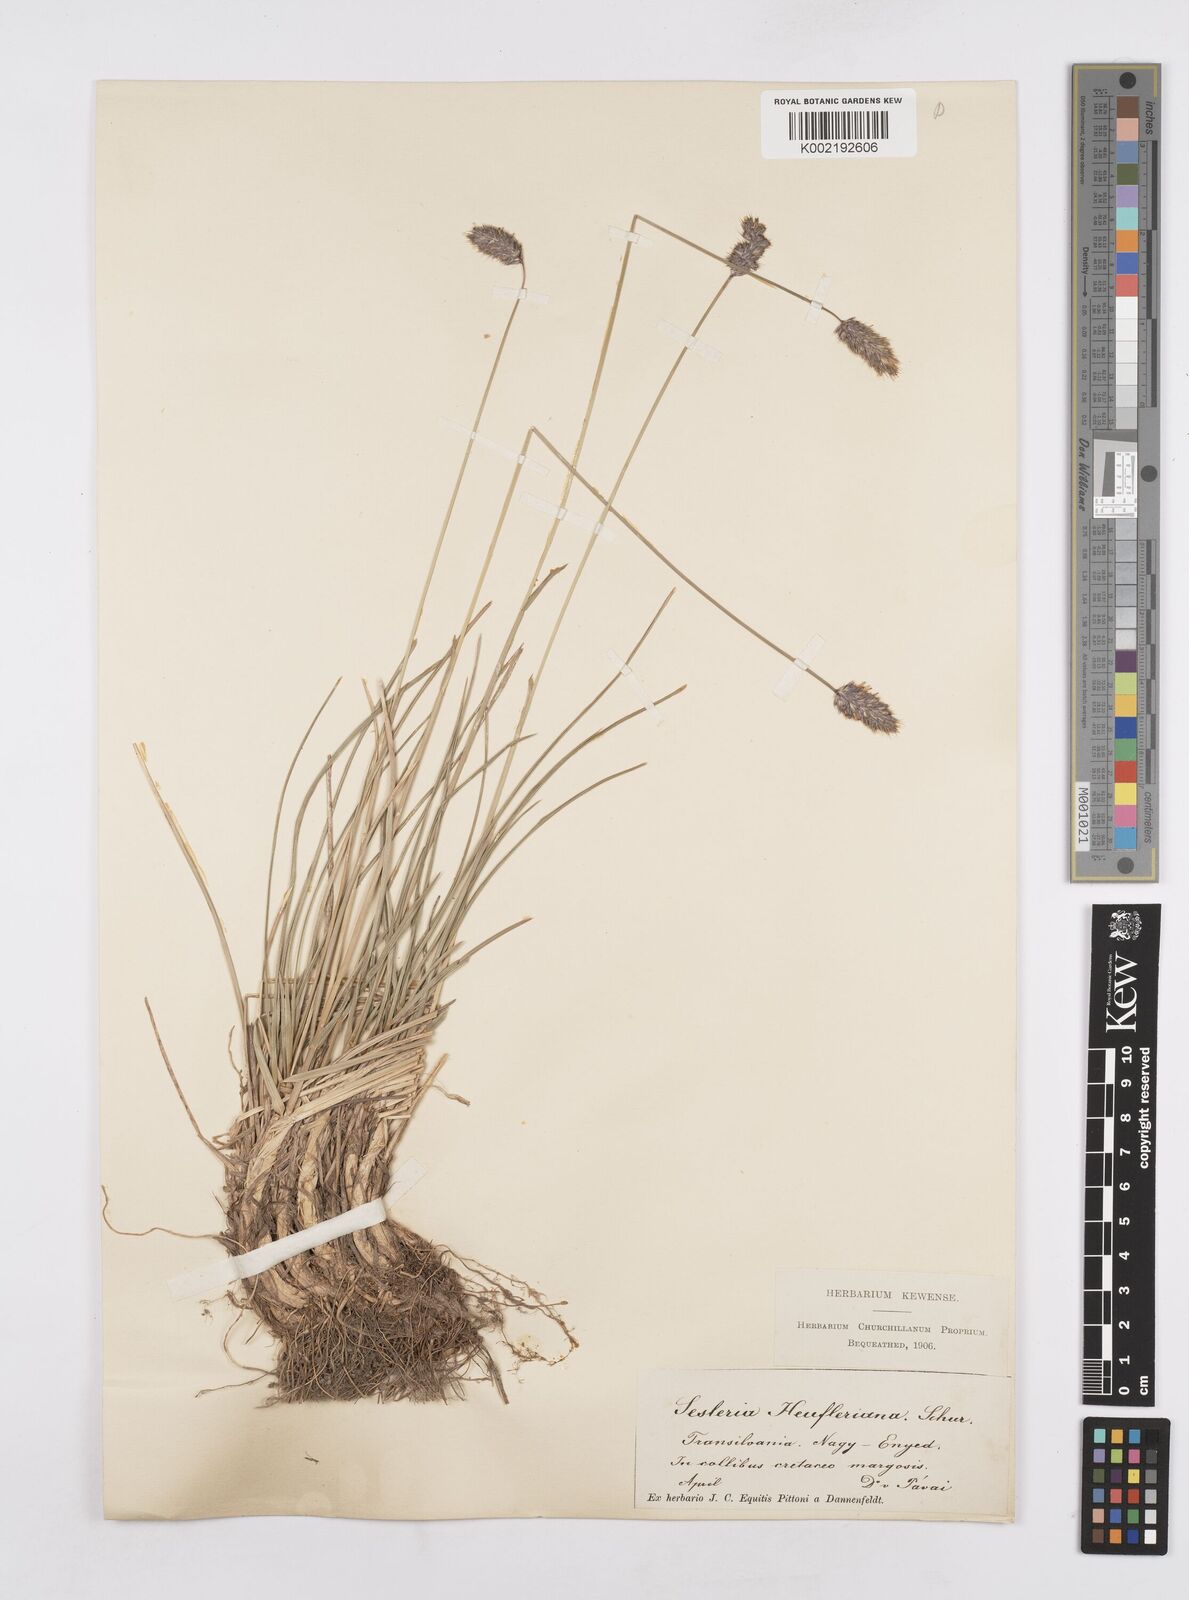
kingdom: Plantae
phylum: Tracheophyta
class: Liliopsida
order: Poales
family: Poaceae
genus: Sesleria
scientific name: Sesleria heufleriana
